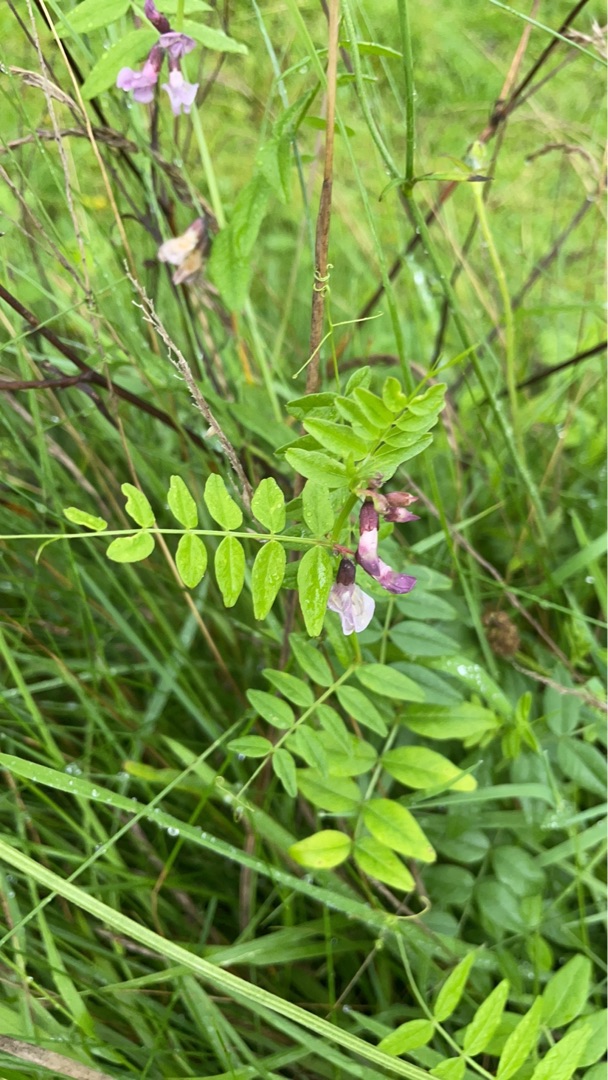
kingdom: Plantae
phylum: Tracheophyta
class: Magnoliopsida
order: Fabales
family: Fabaceae
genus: Vicia
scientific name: Vicia sepium
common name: Gærde-vikke
